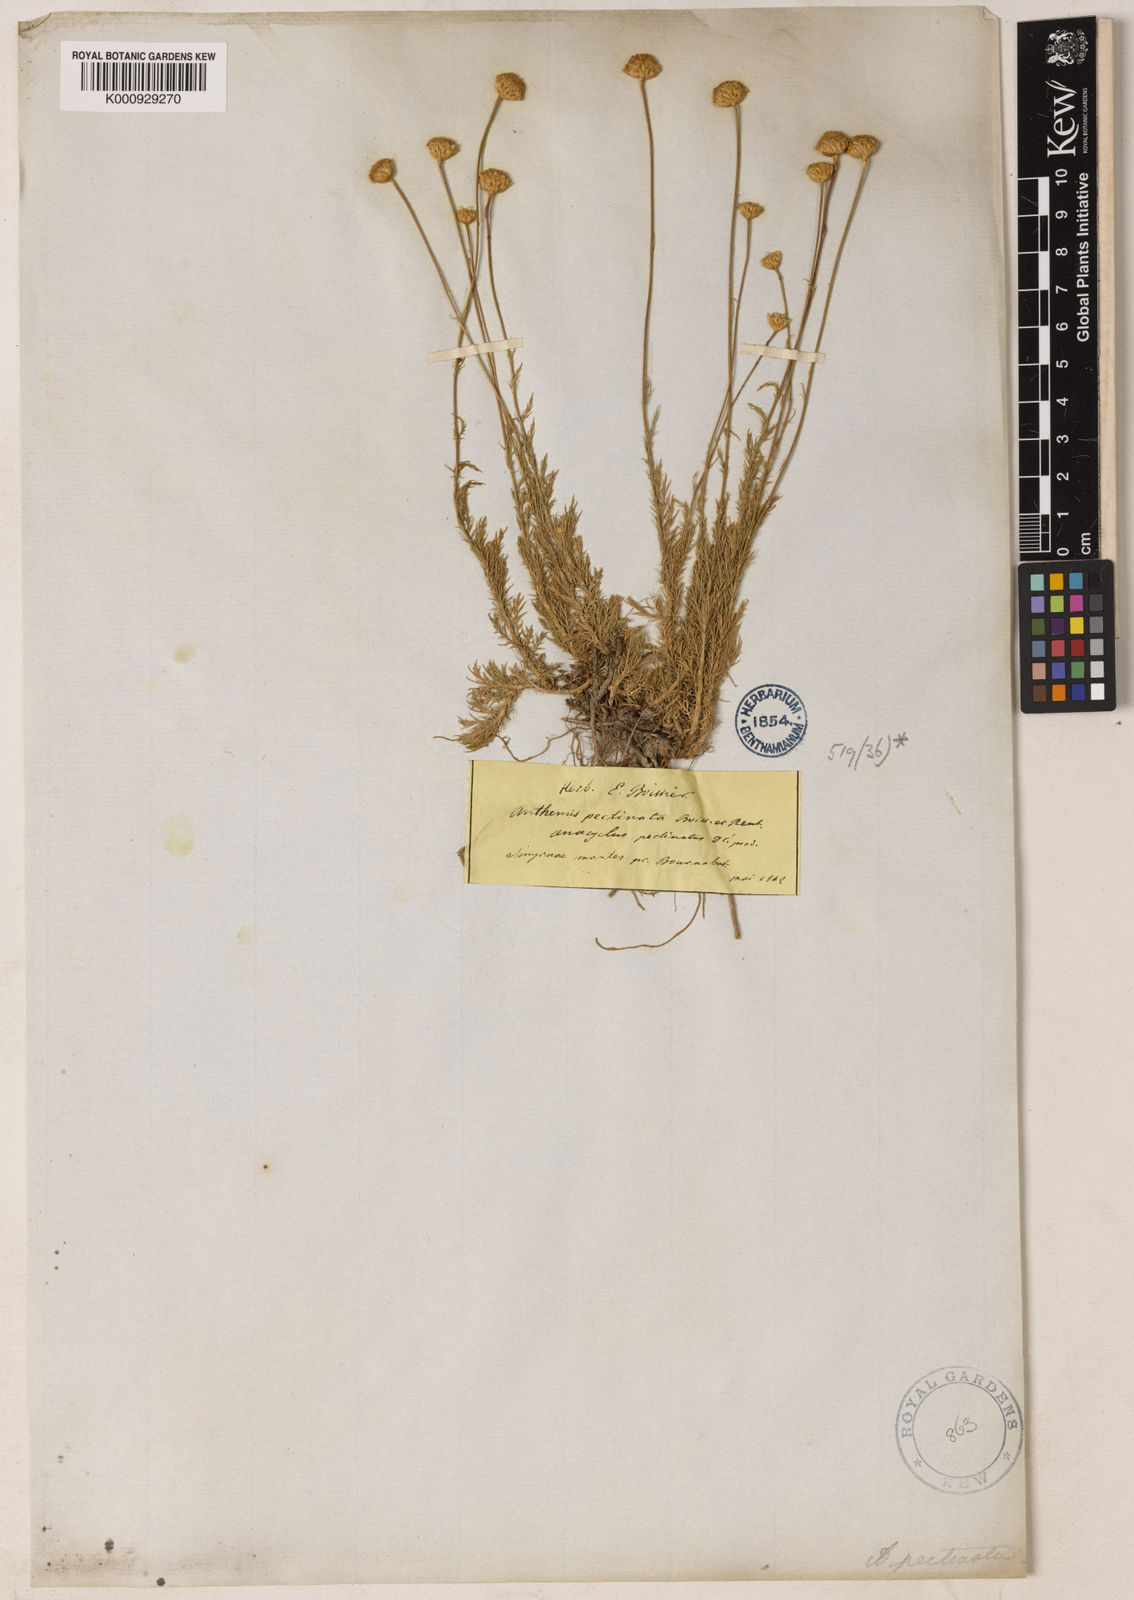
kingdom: Plantae
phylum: Tracheophyta
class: Magnoliopsida
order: Asterales
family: Asteraceae
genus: Anthemis
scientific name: Anthemis orientalis
